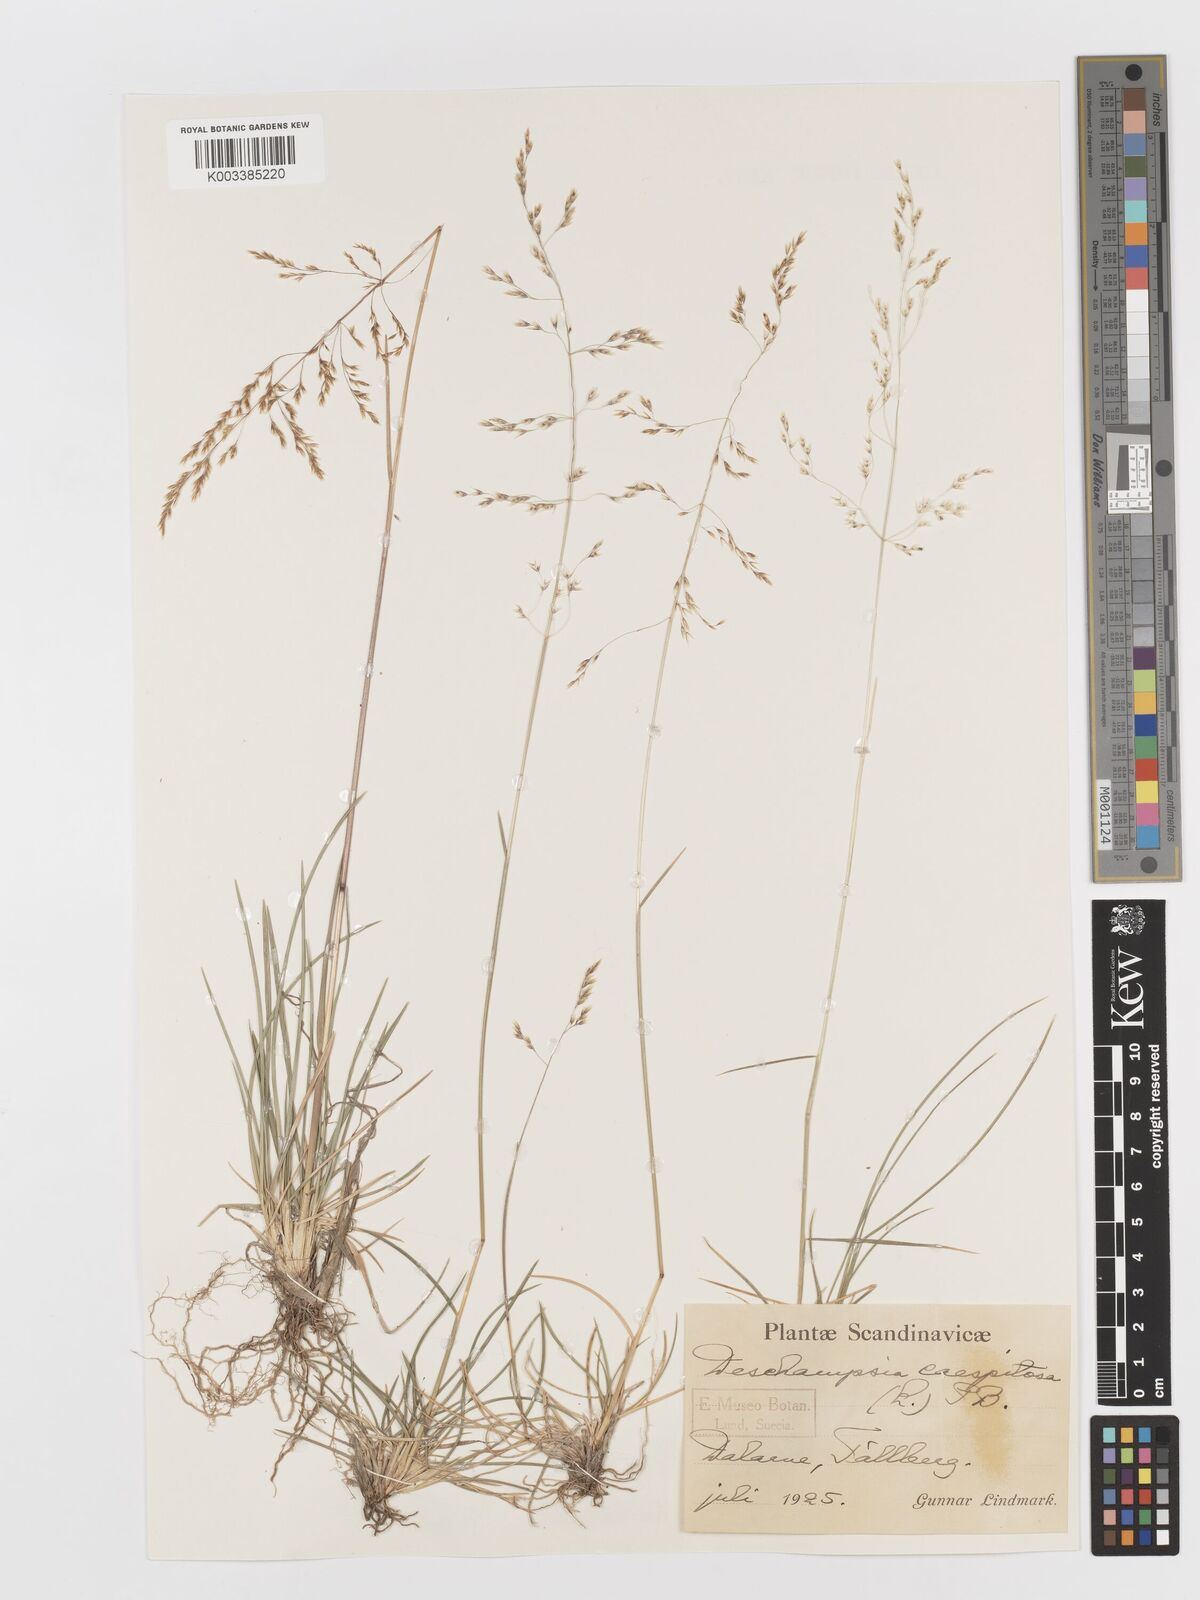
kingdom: Plantae
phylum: Tracheophyta
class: Liliopsida
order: Poales
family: Poaceae
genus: Deschampsia
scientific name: Deschampsia cespitosa
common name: Tufted hair-grass
